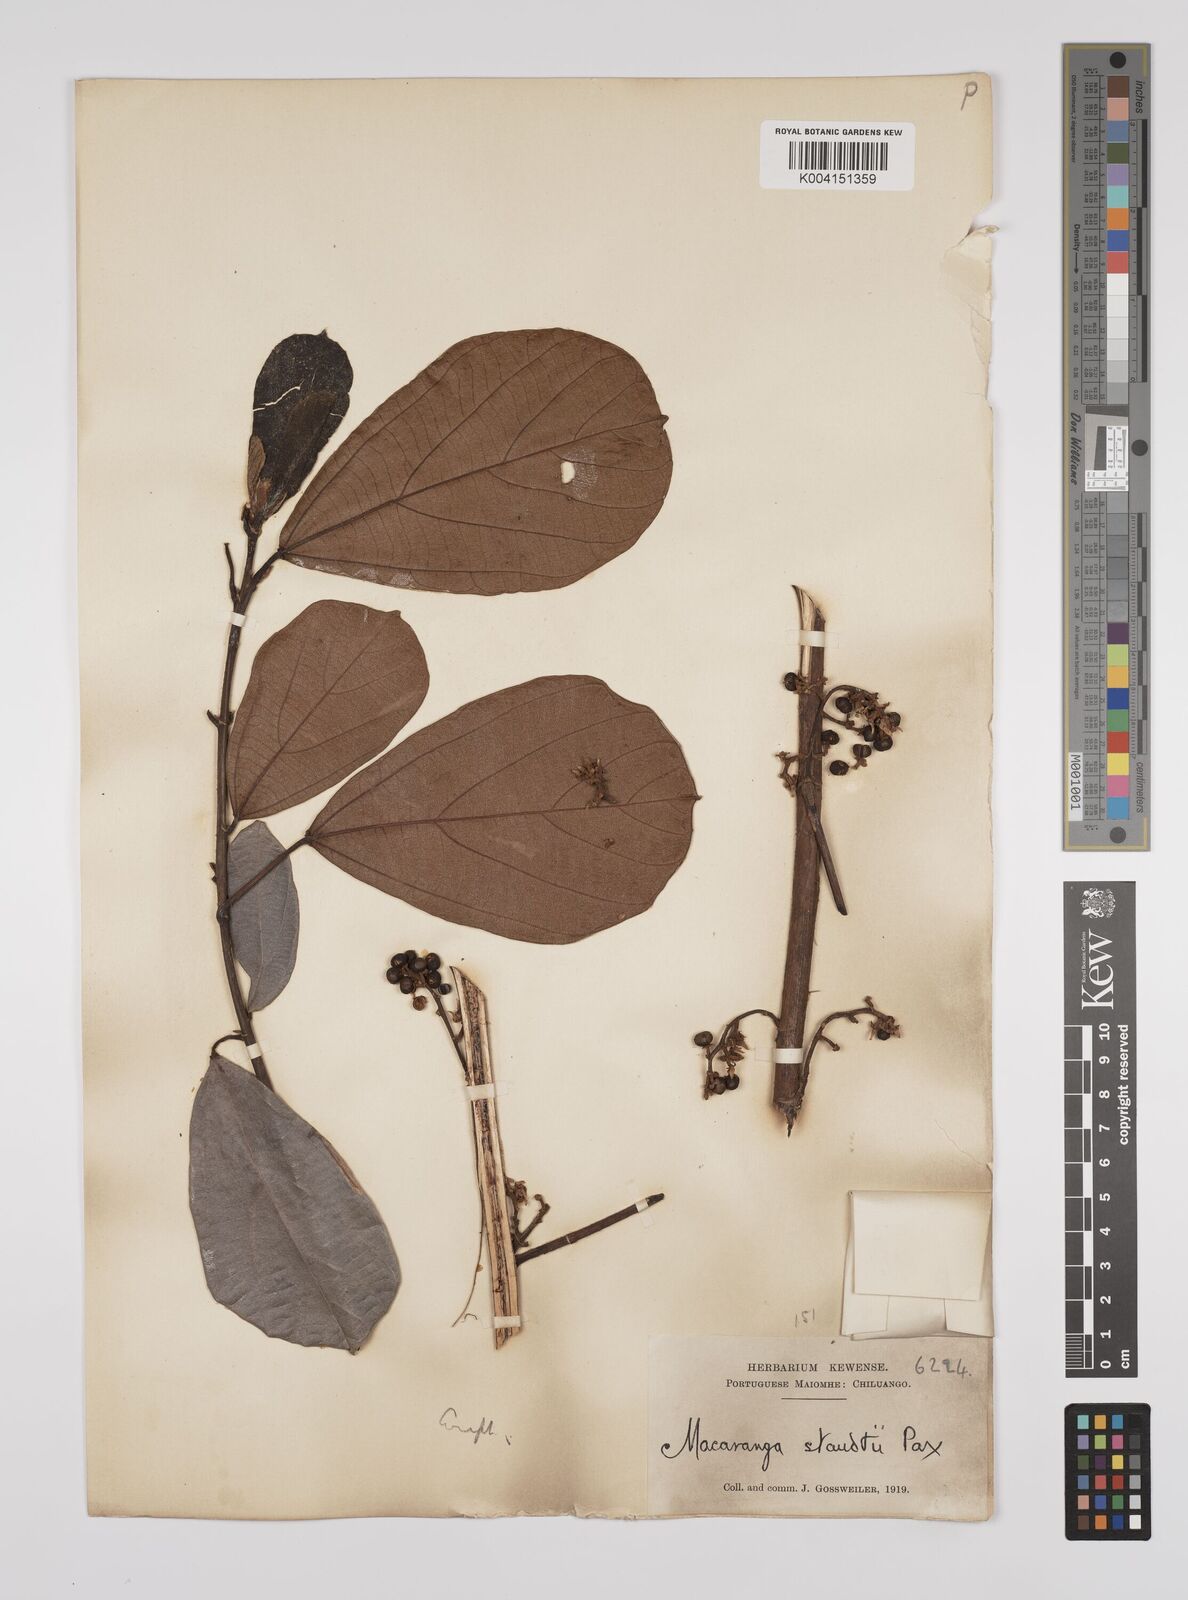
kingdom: Plantae
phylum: Tracheophyta
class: Magnoliopsida
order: Malpighiales
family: Euphorbiaceae
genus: Macaranga
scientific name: Macaranga staudtii
